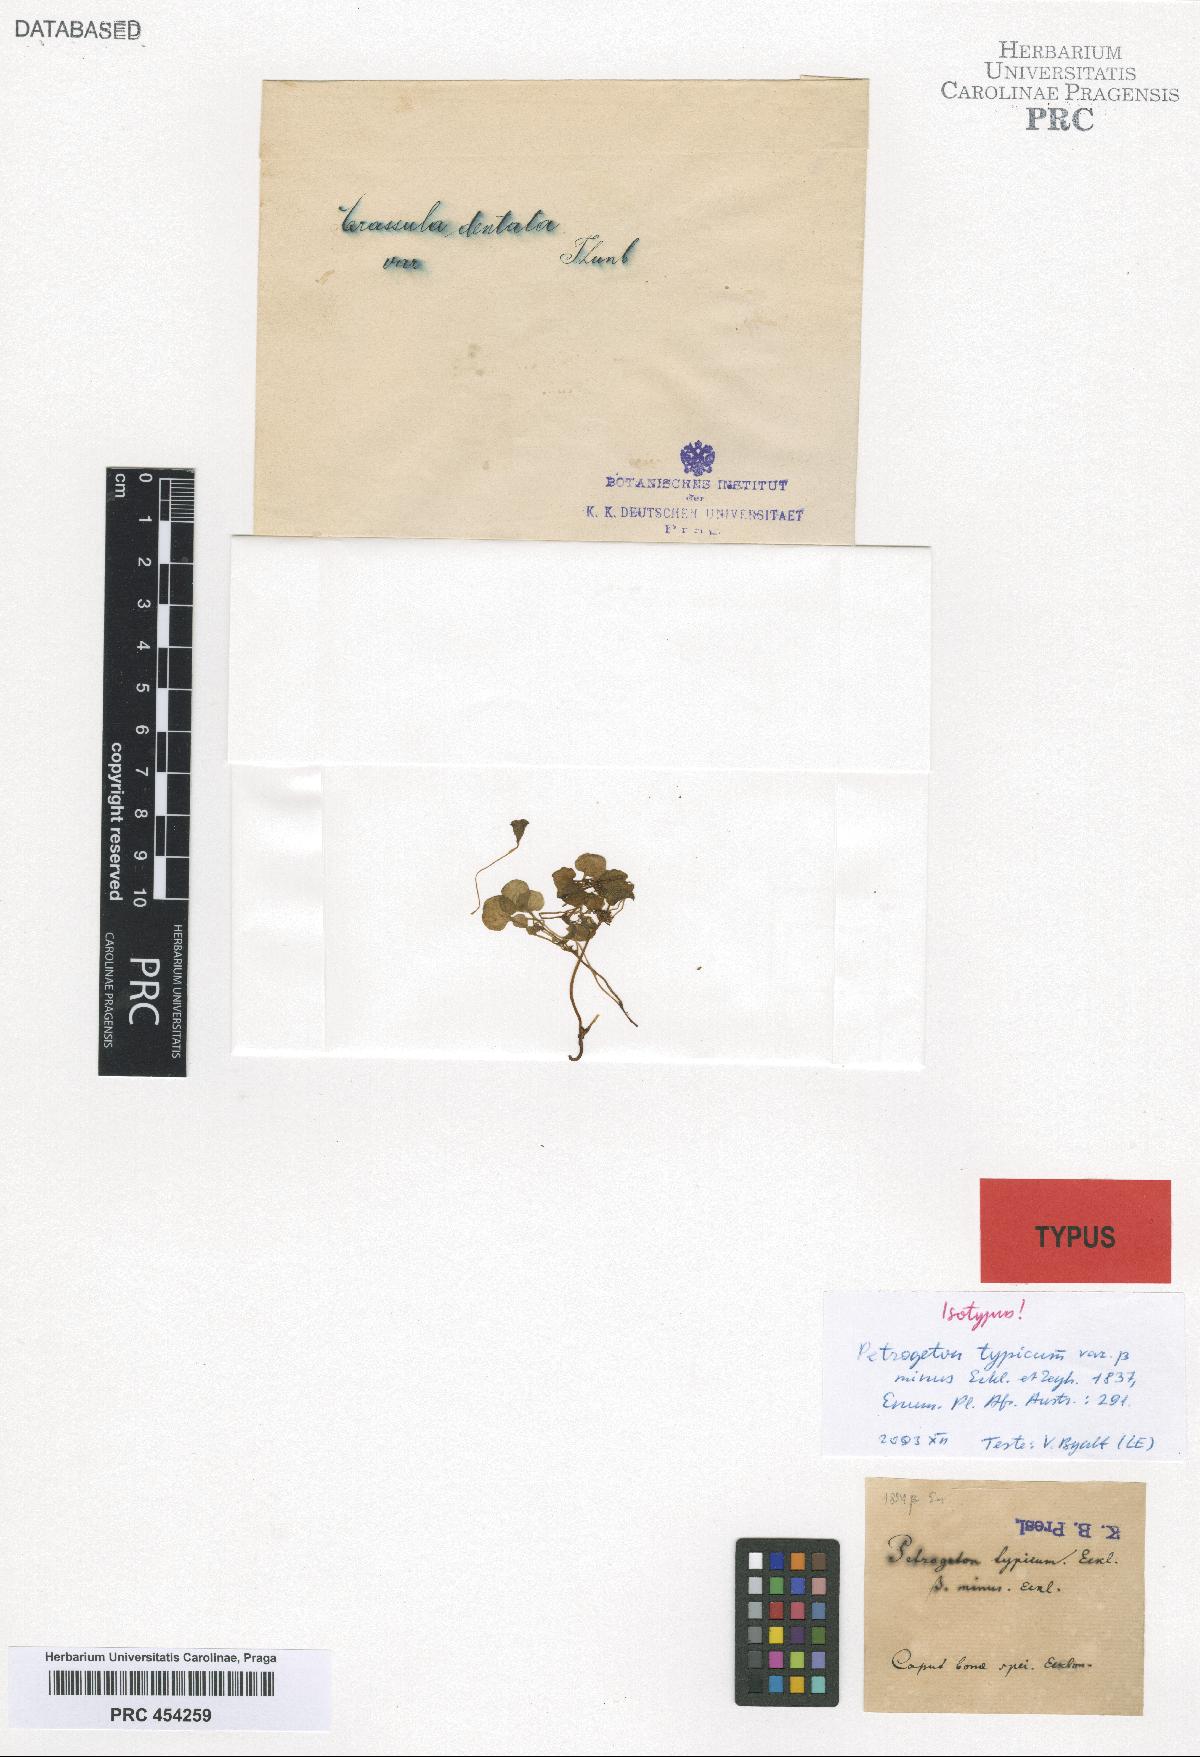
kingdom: Plantae
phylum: Tracheophyta
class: Magnoliopsida
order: Saxifragales
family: Crassulaceae
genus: Crassula
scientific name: Crassula dentata
